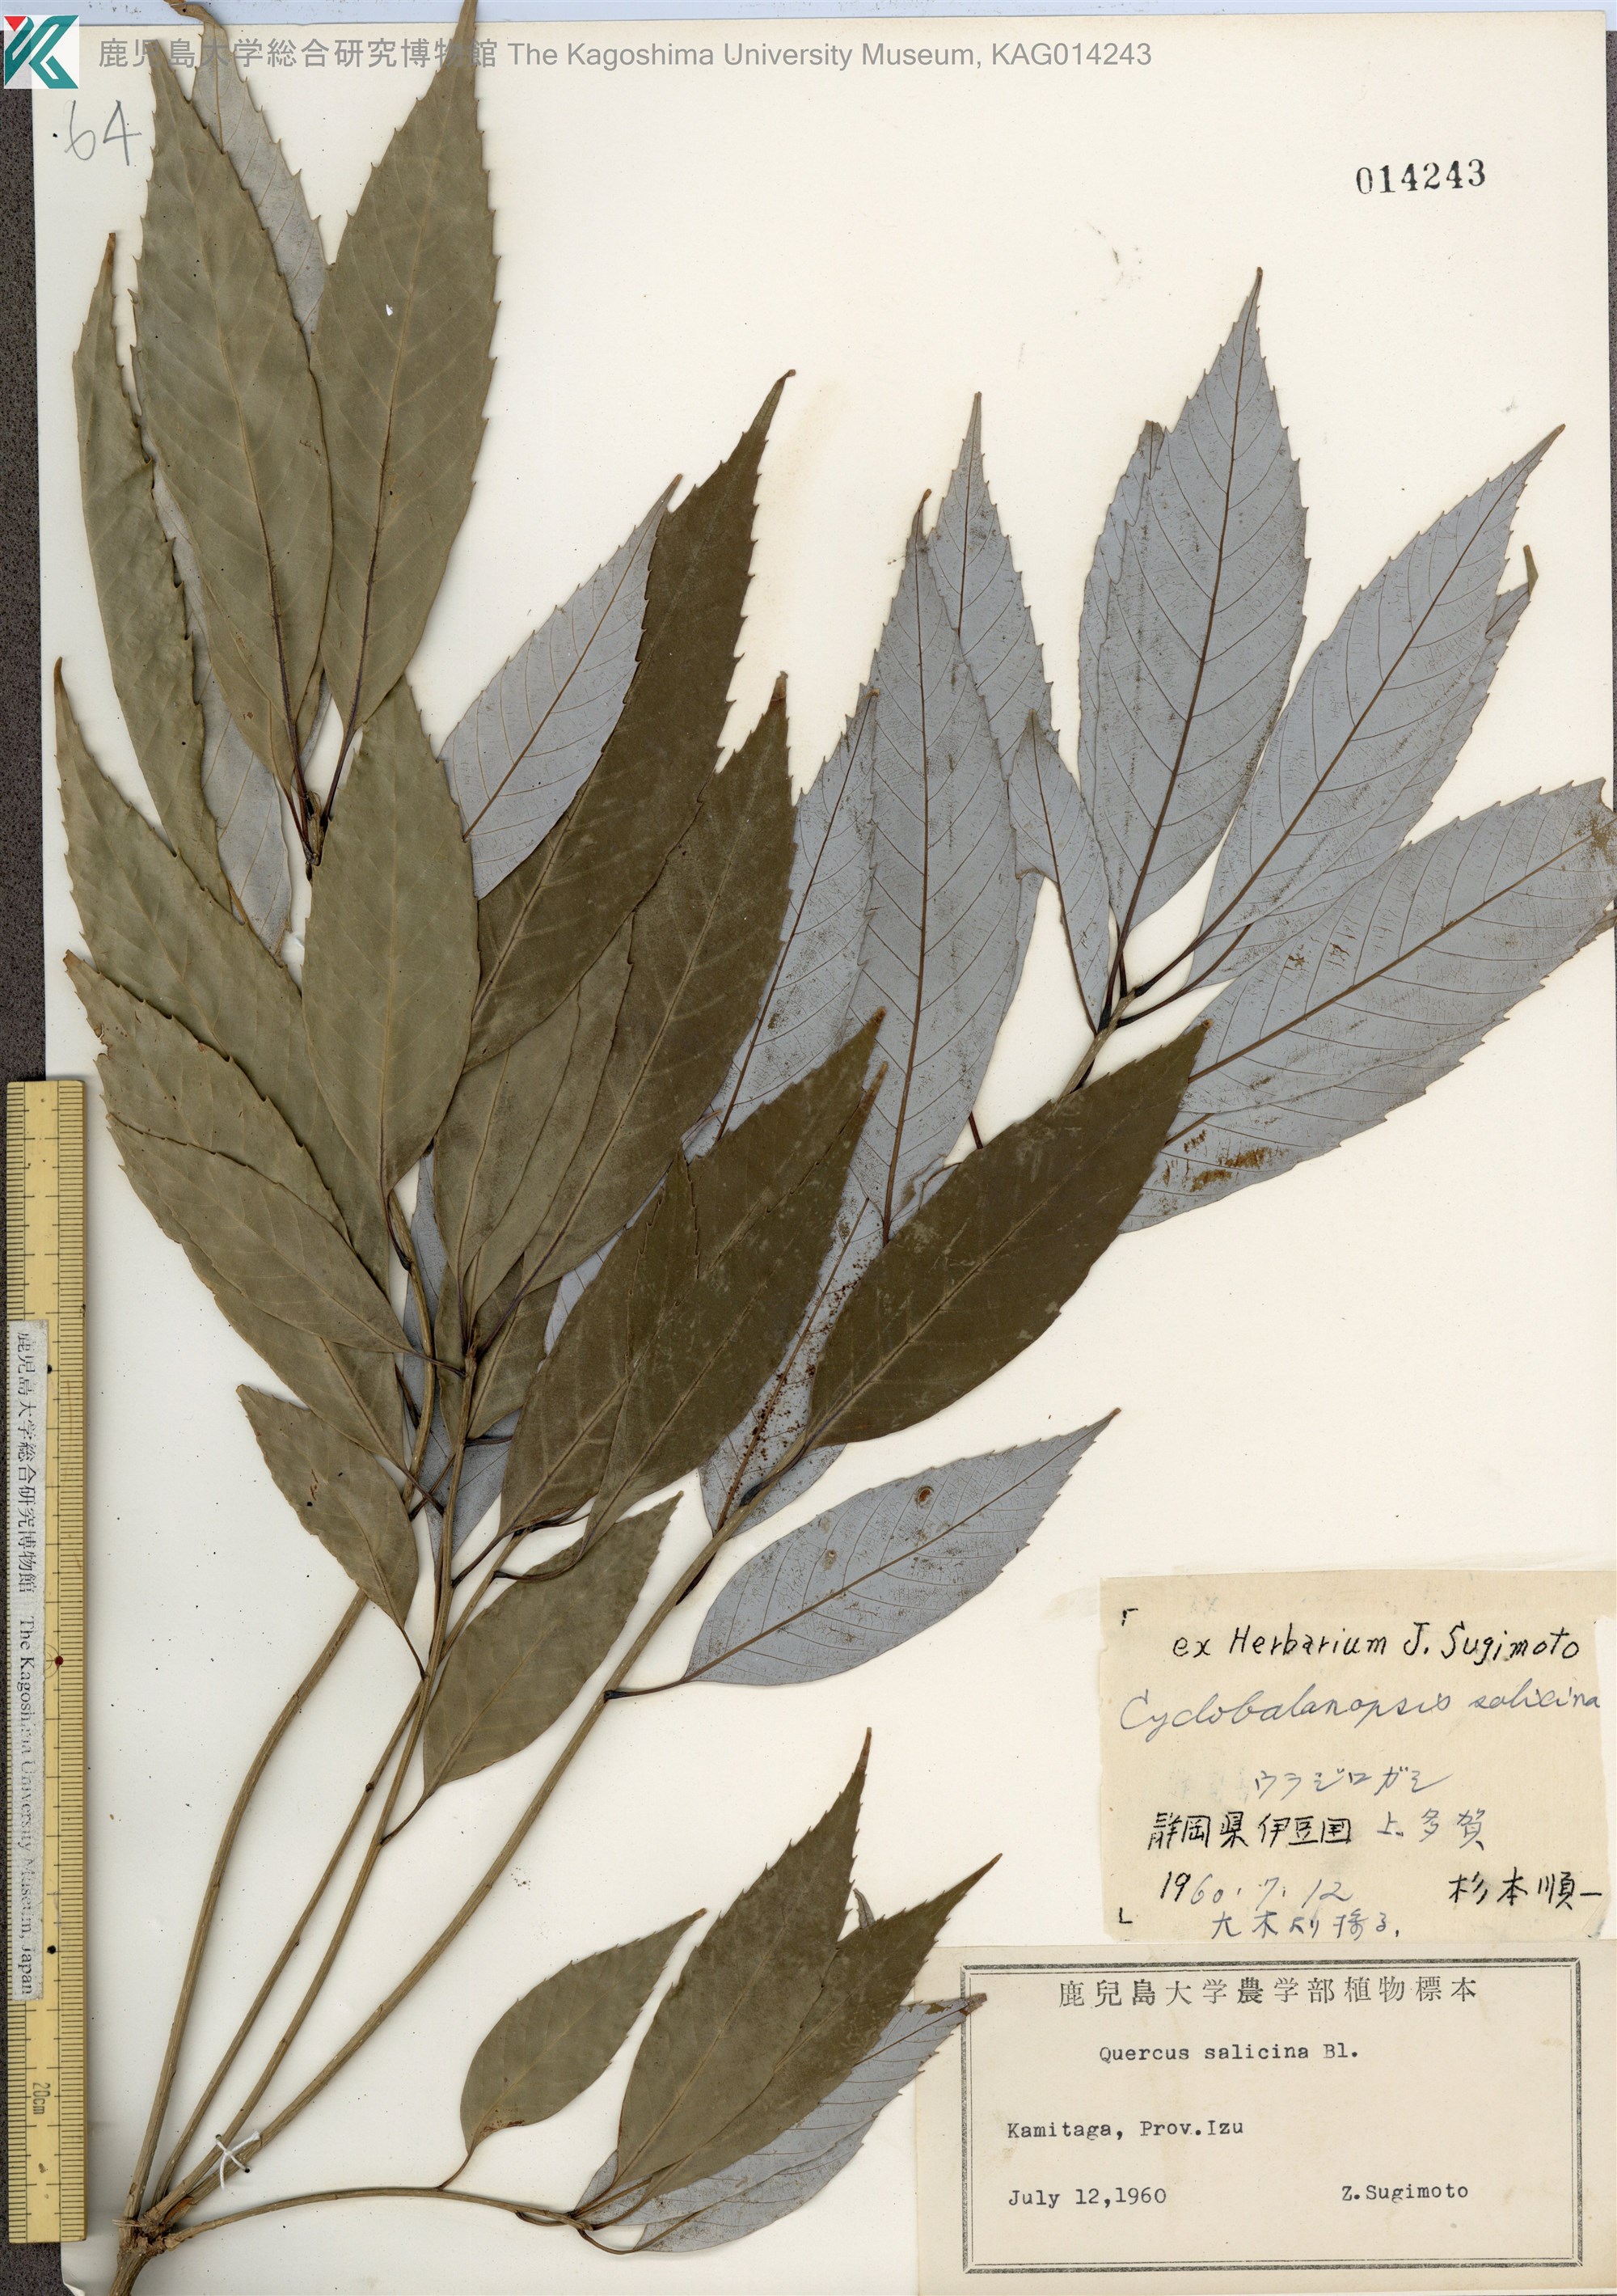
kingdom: Plantae
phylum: Tracheophyta
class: Magnoliopsida
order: Fagales
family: Fagaceae
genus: Quercus
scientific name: Quercus salicina
